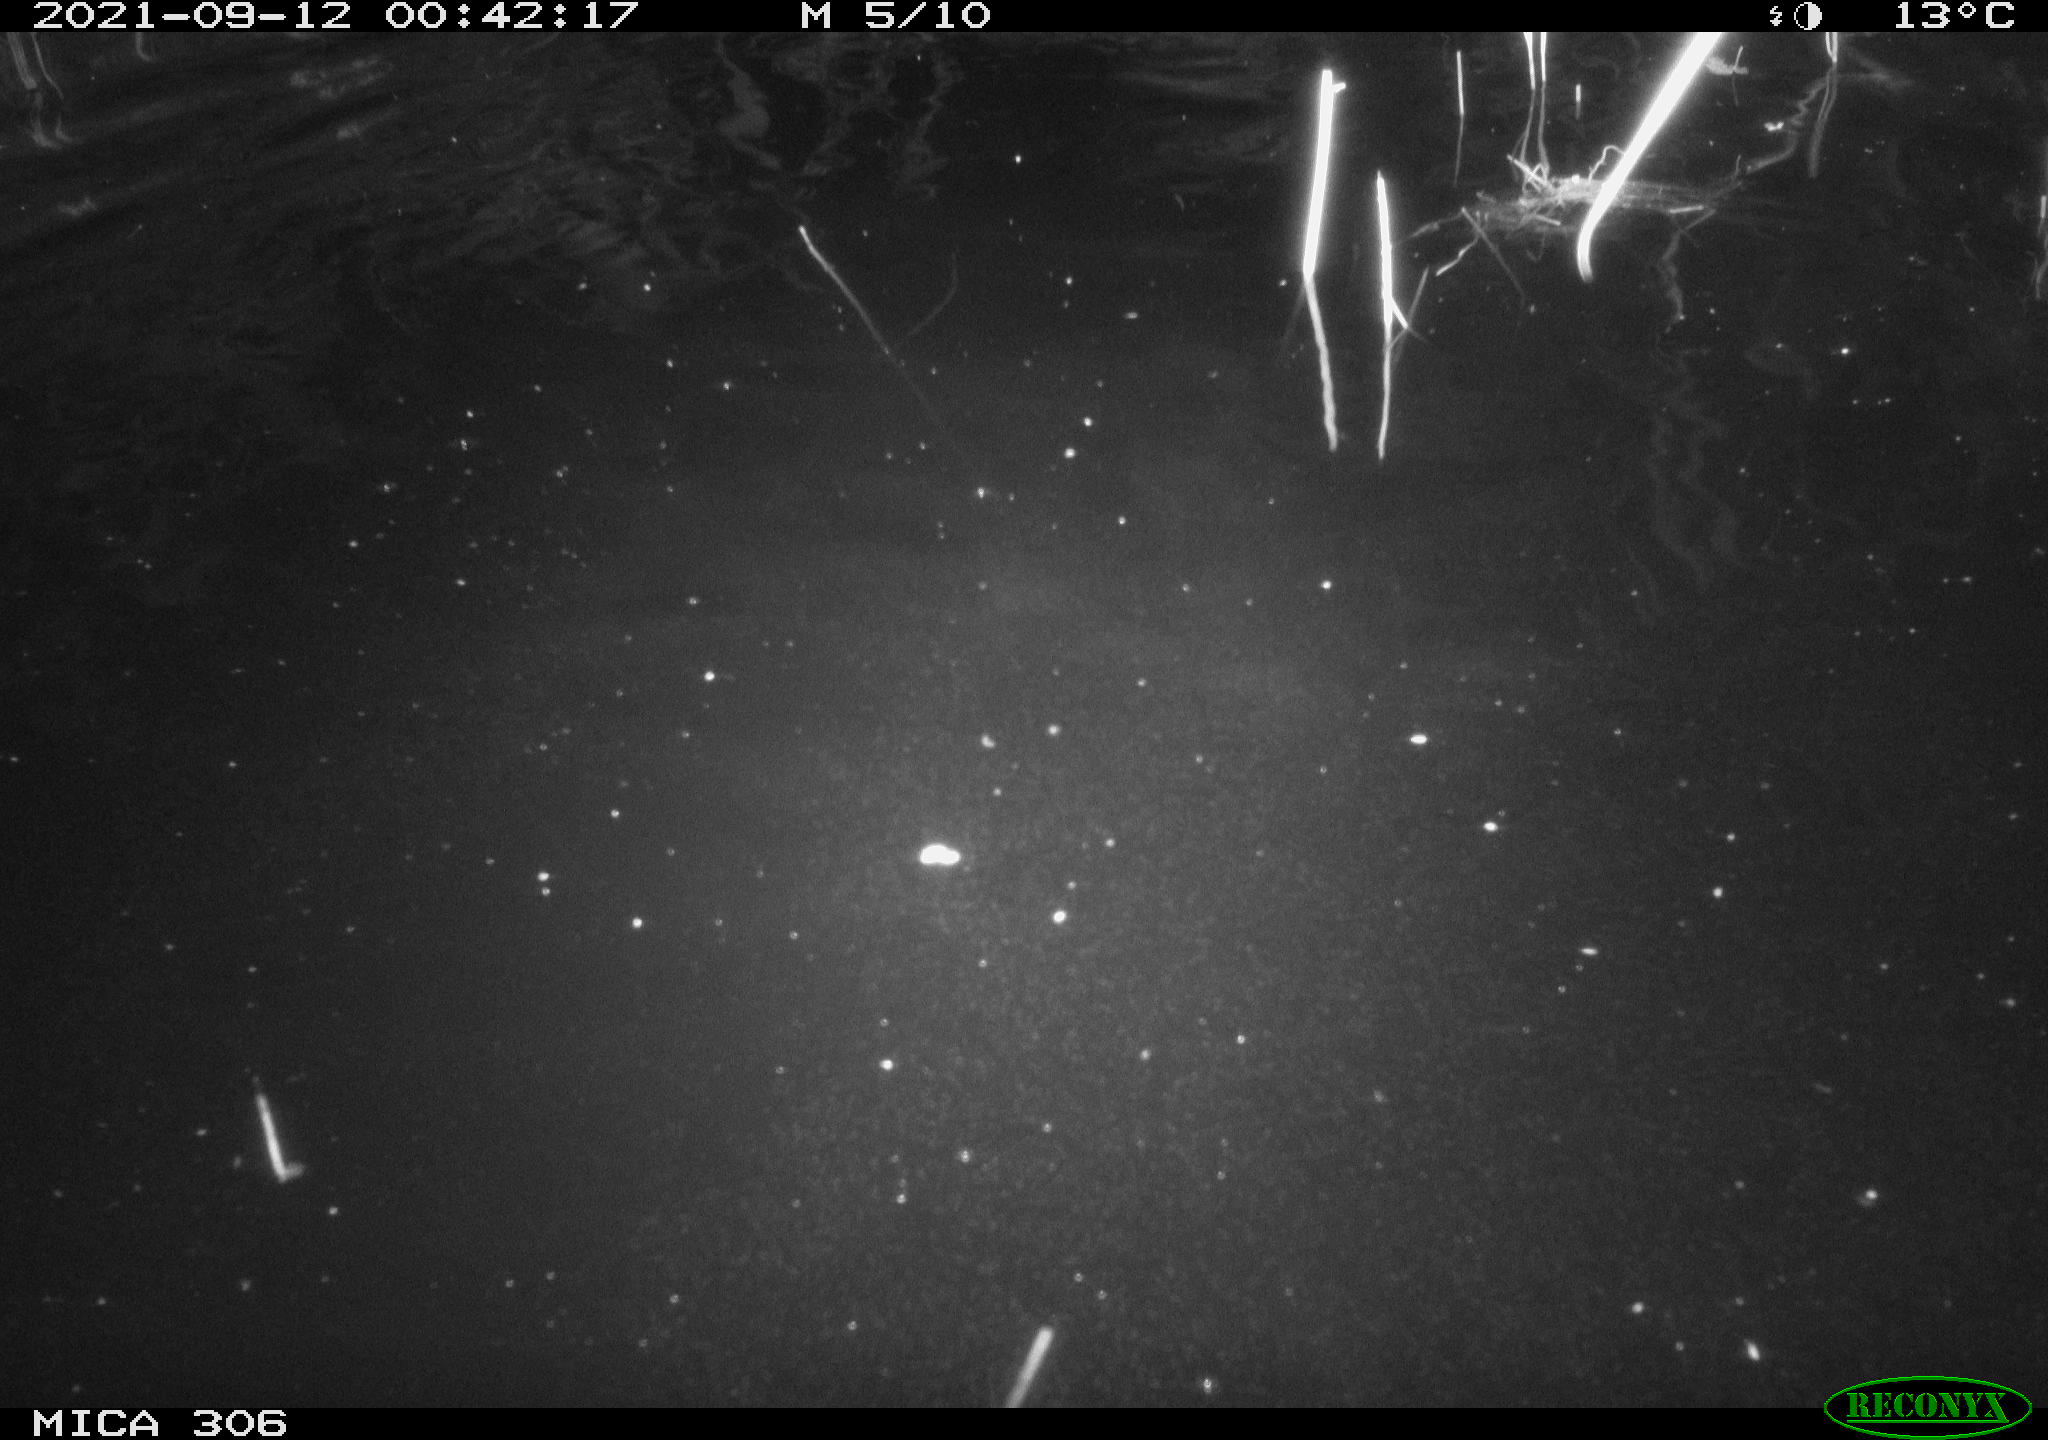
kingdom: Animalia
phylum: Chordata
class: Mammalia
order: Rodentia
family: Cricetidae
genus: Ondatra
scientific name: Ondatra zibethicus
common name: Muskrat
